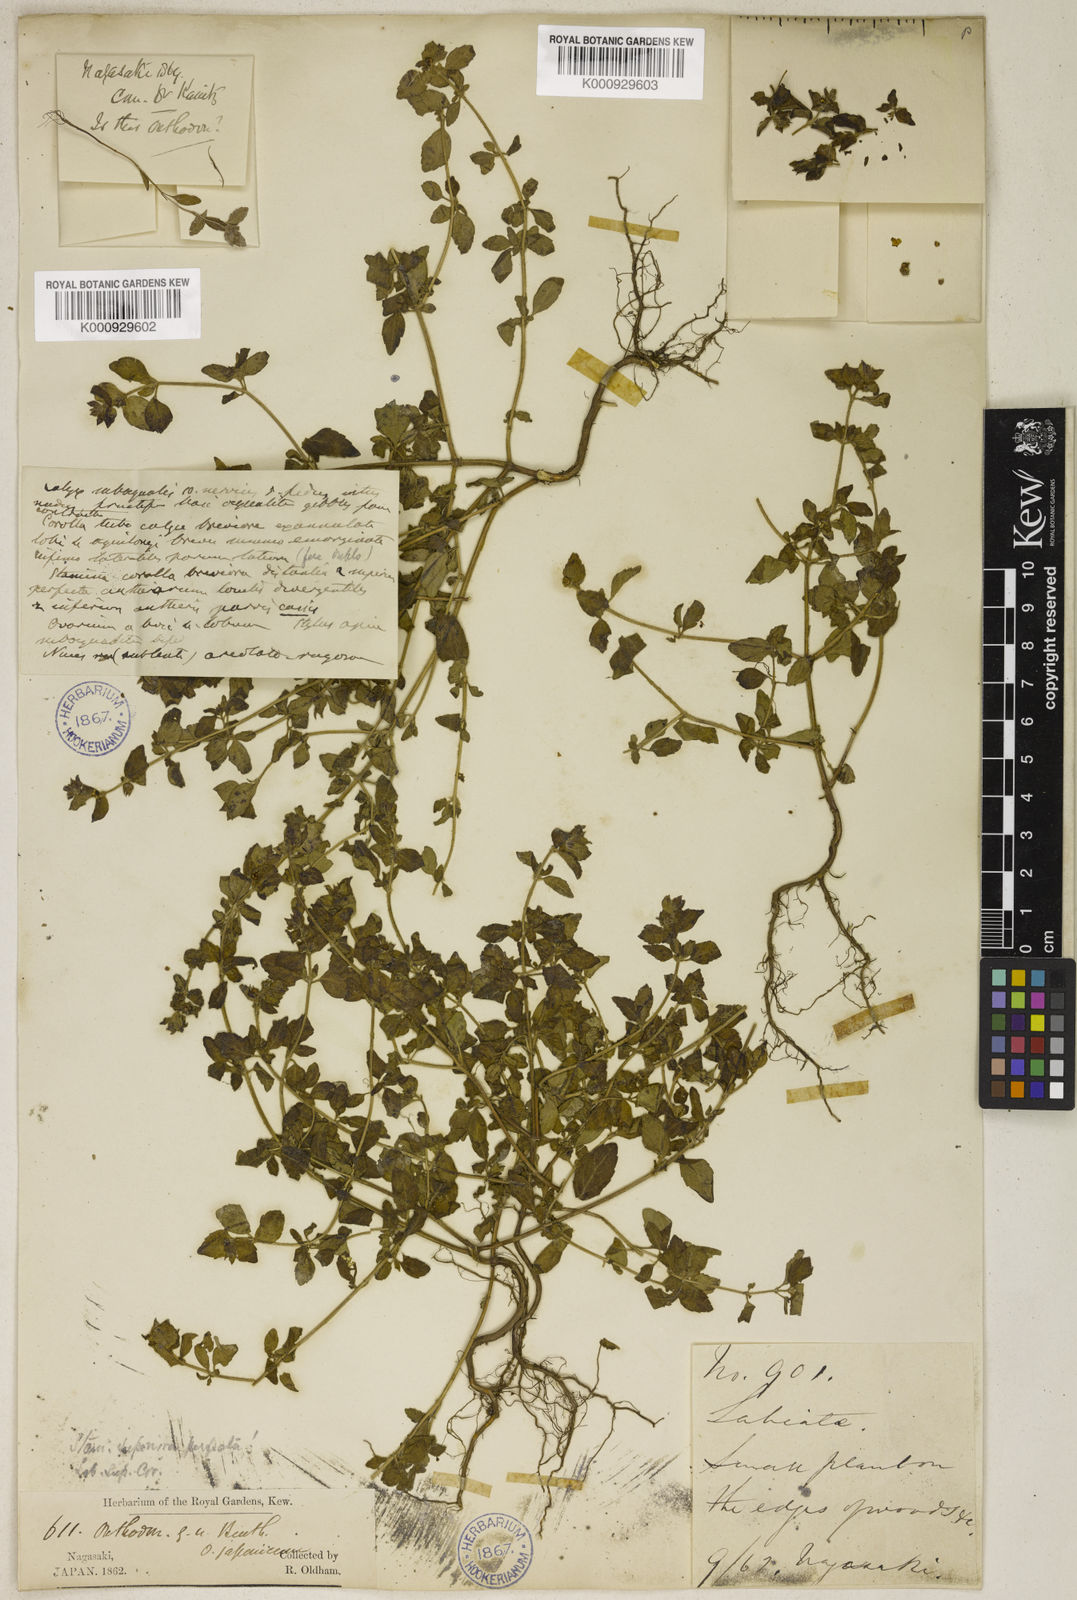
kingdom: Plantae
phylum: Tracheophyta
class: Magnoliopsida
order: Lamiales
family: Lamiaceae
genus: Mosla
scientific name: Mosla japonica
